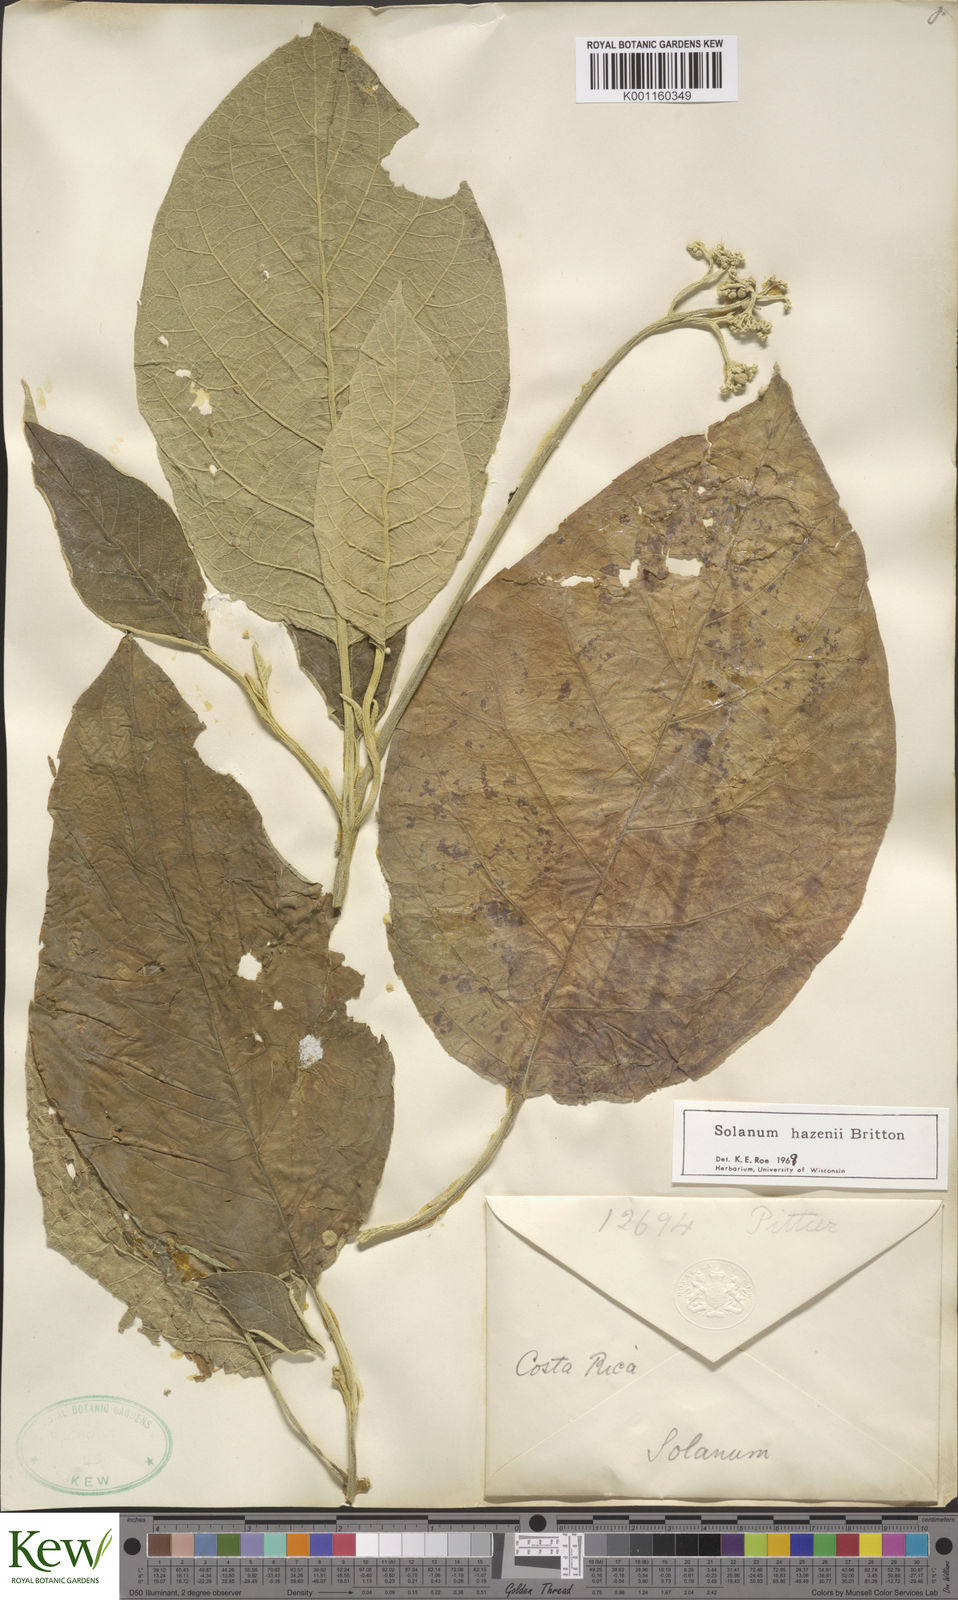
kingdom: Plantae
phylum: Tracheophyta
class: Magnoliopsida
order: Solanales
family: Solanaceae
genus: Solanum
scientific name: Solanum hazenii
